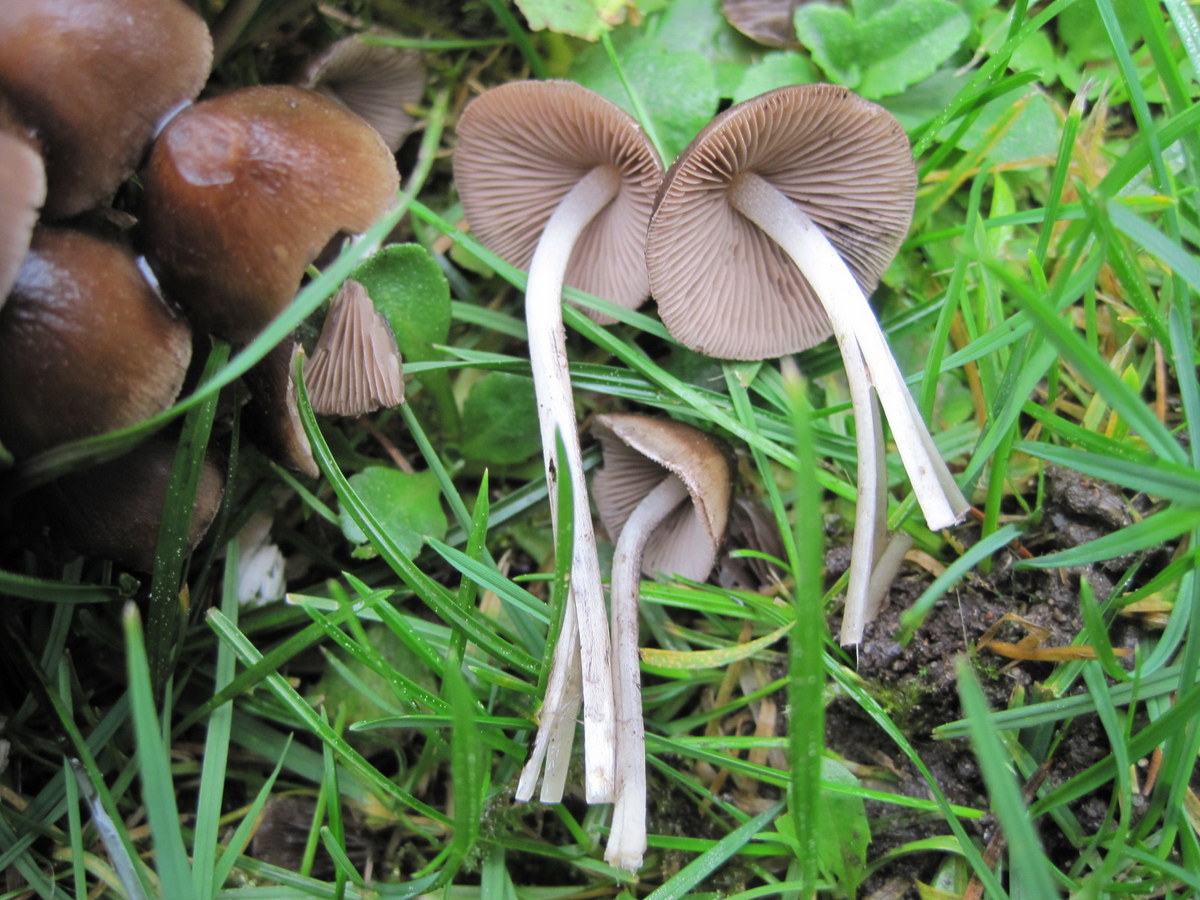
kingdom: Fungi
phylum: Basidiomycota
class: Agaricomycetes
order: Agaricales
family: Psathyrellaceae
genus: Britzelmayria
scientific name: Britzelmayria multipedata
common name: knippe-mørkhat
